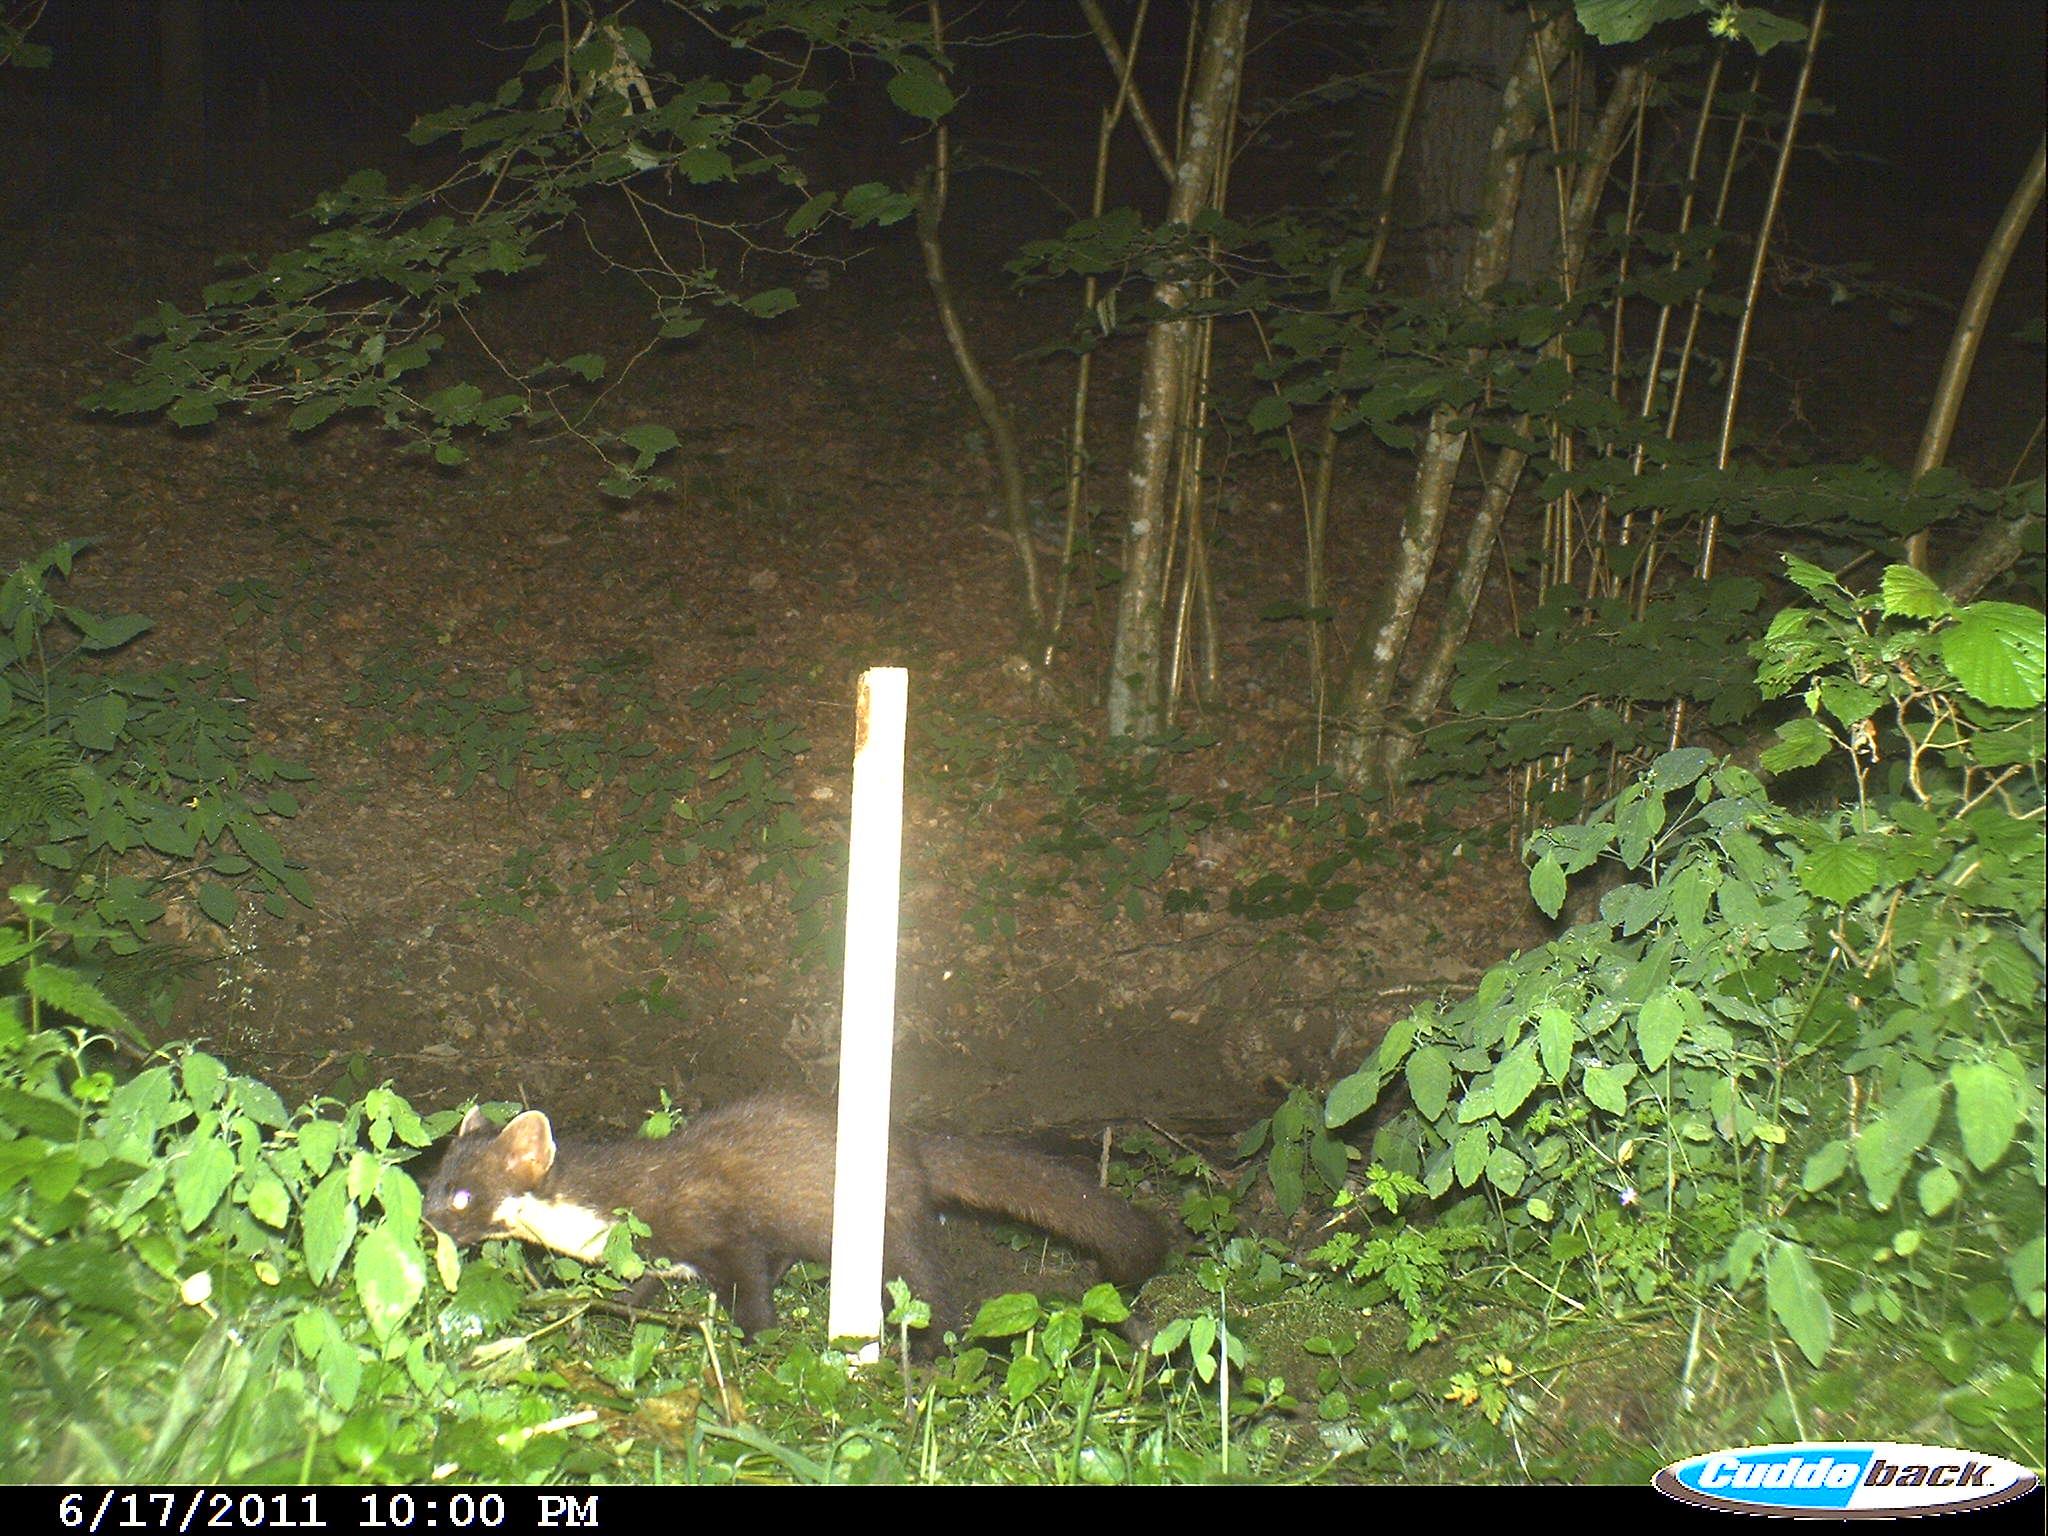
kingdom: Animalia
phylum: Chordata
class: Mammalia
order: Carnivora
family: Mustelidae
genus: Martes
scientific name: Martes
